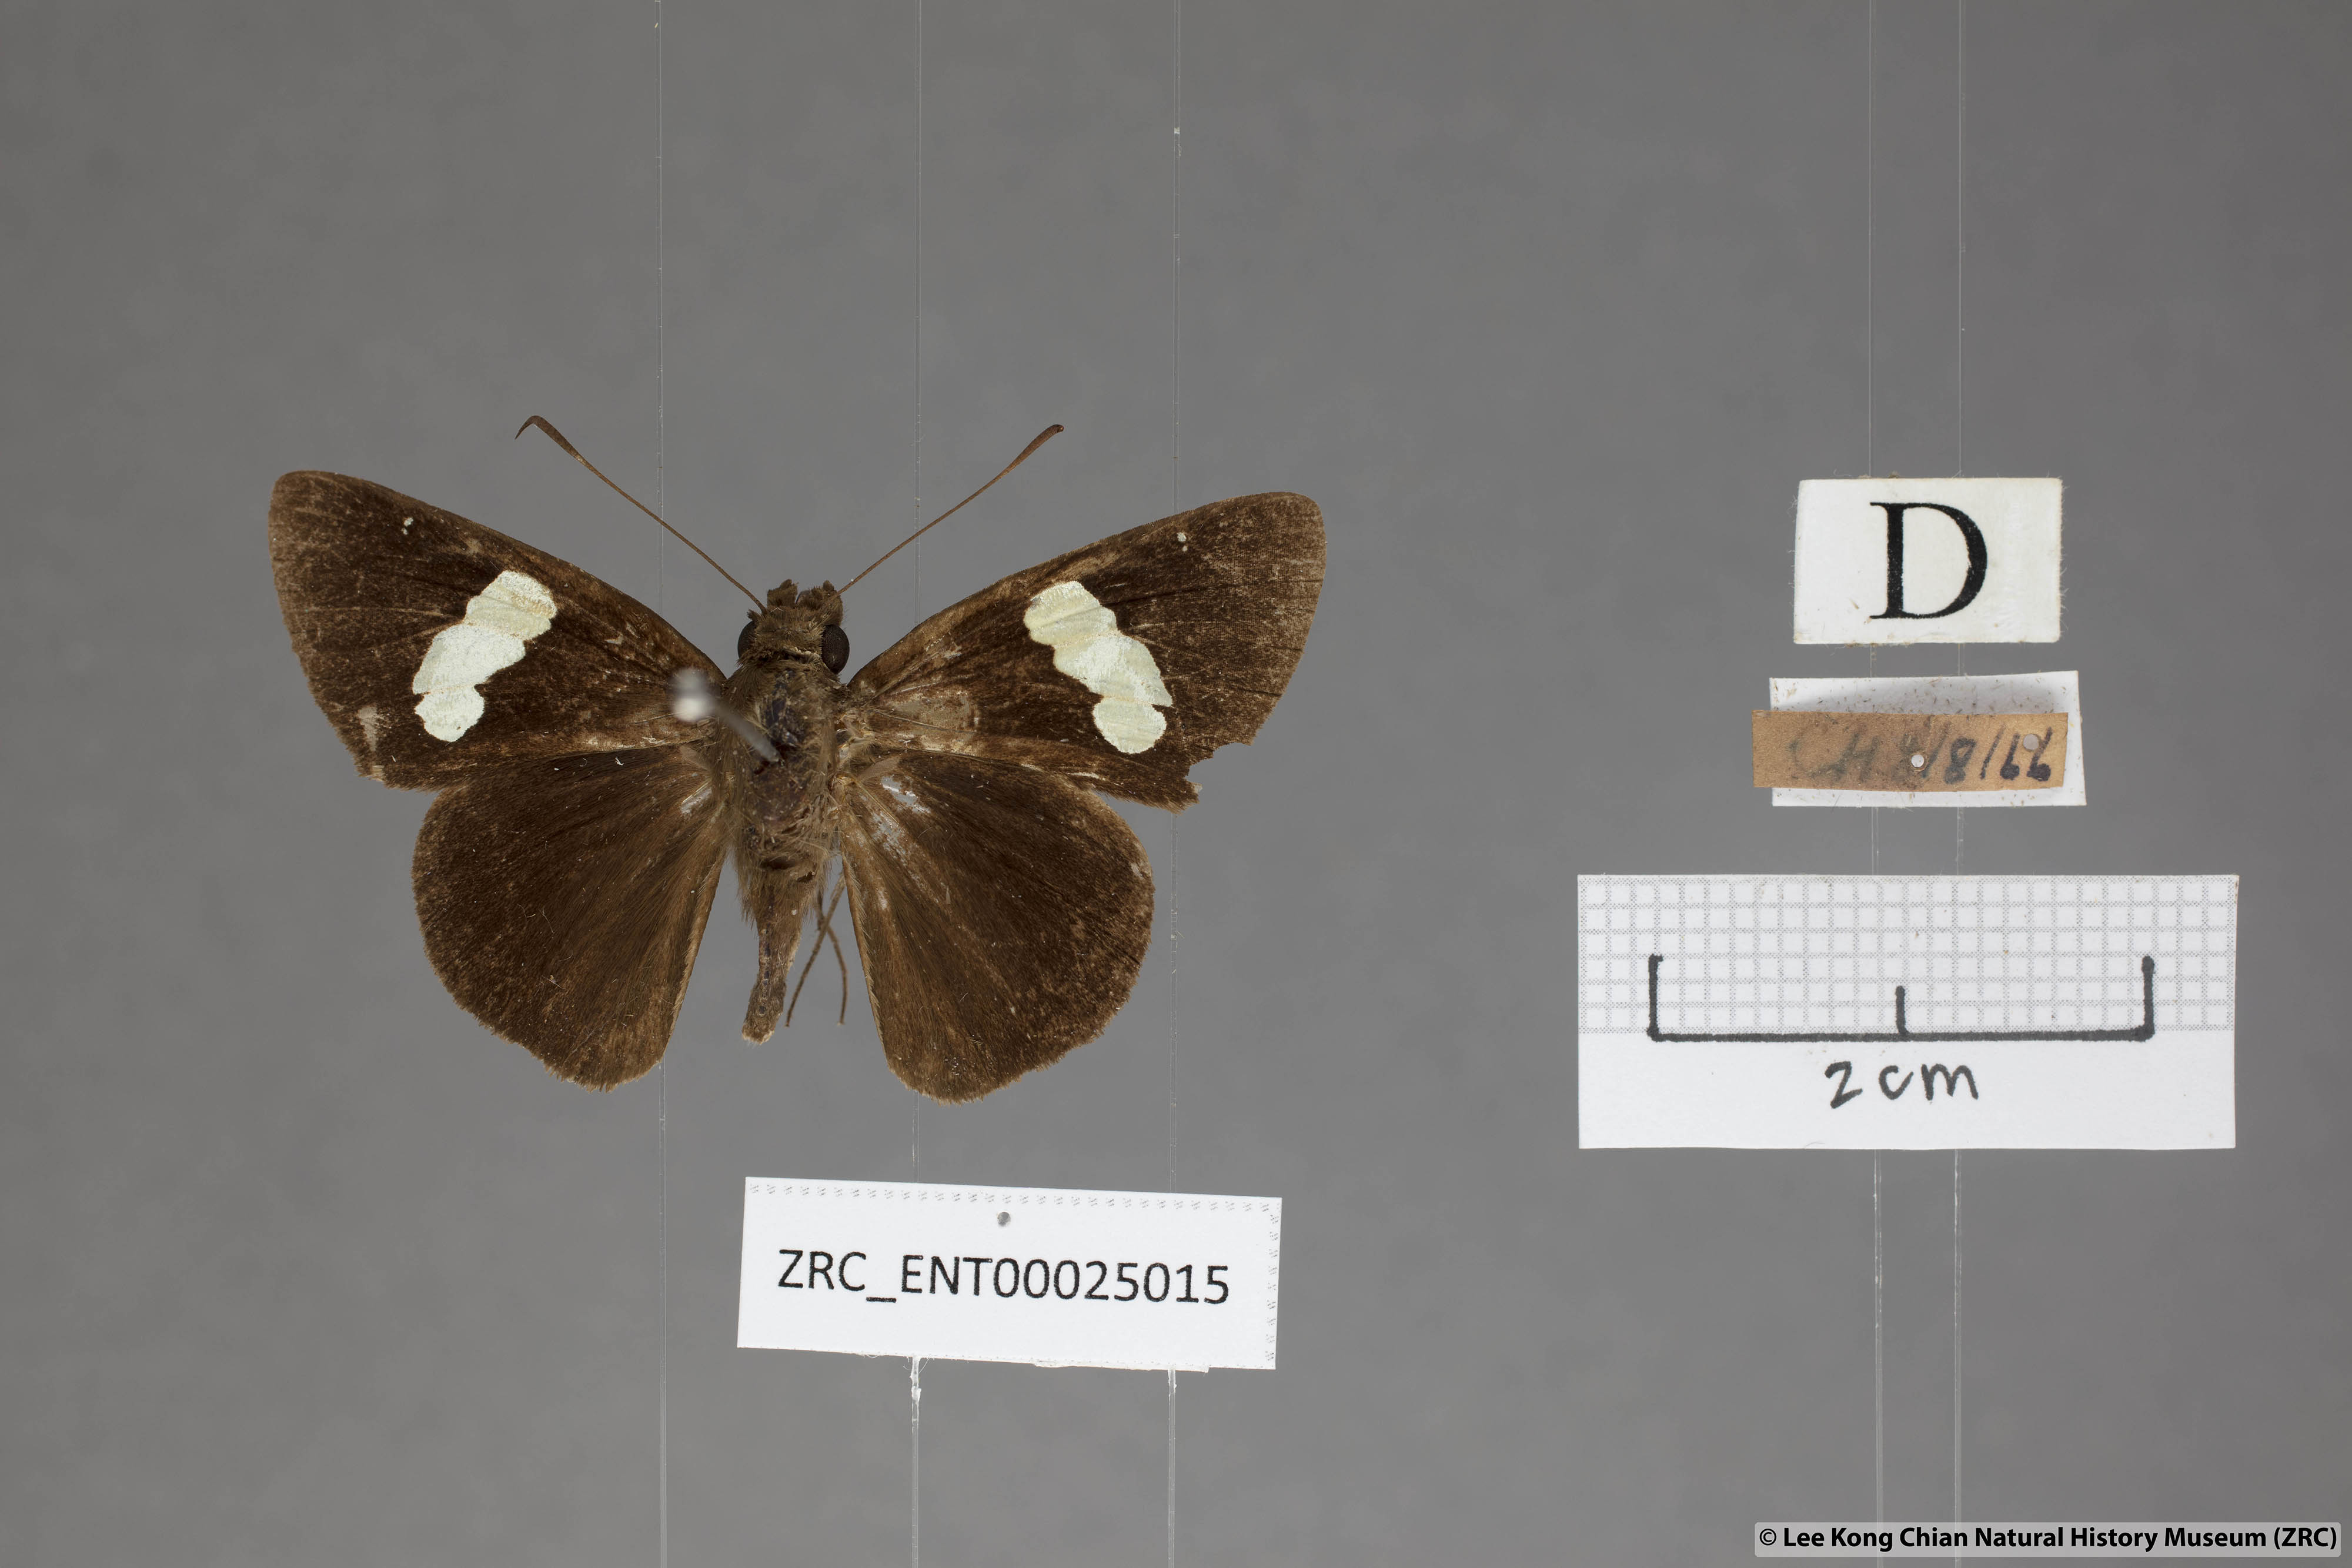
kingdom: Animalia
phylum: Arthropoda
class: Insecta
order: Lepidoptera
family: Hesperiidae
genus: Notocrypta
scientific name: Notocrypta feisthamelii
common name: Spotted demon
